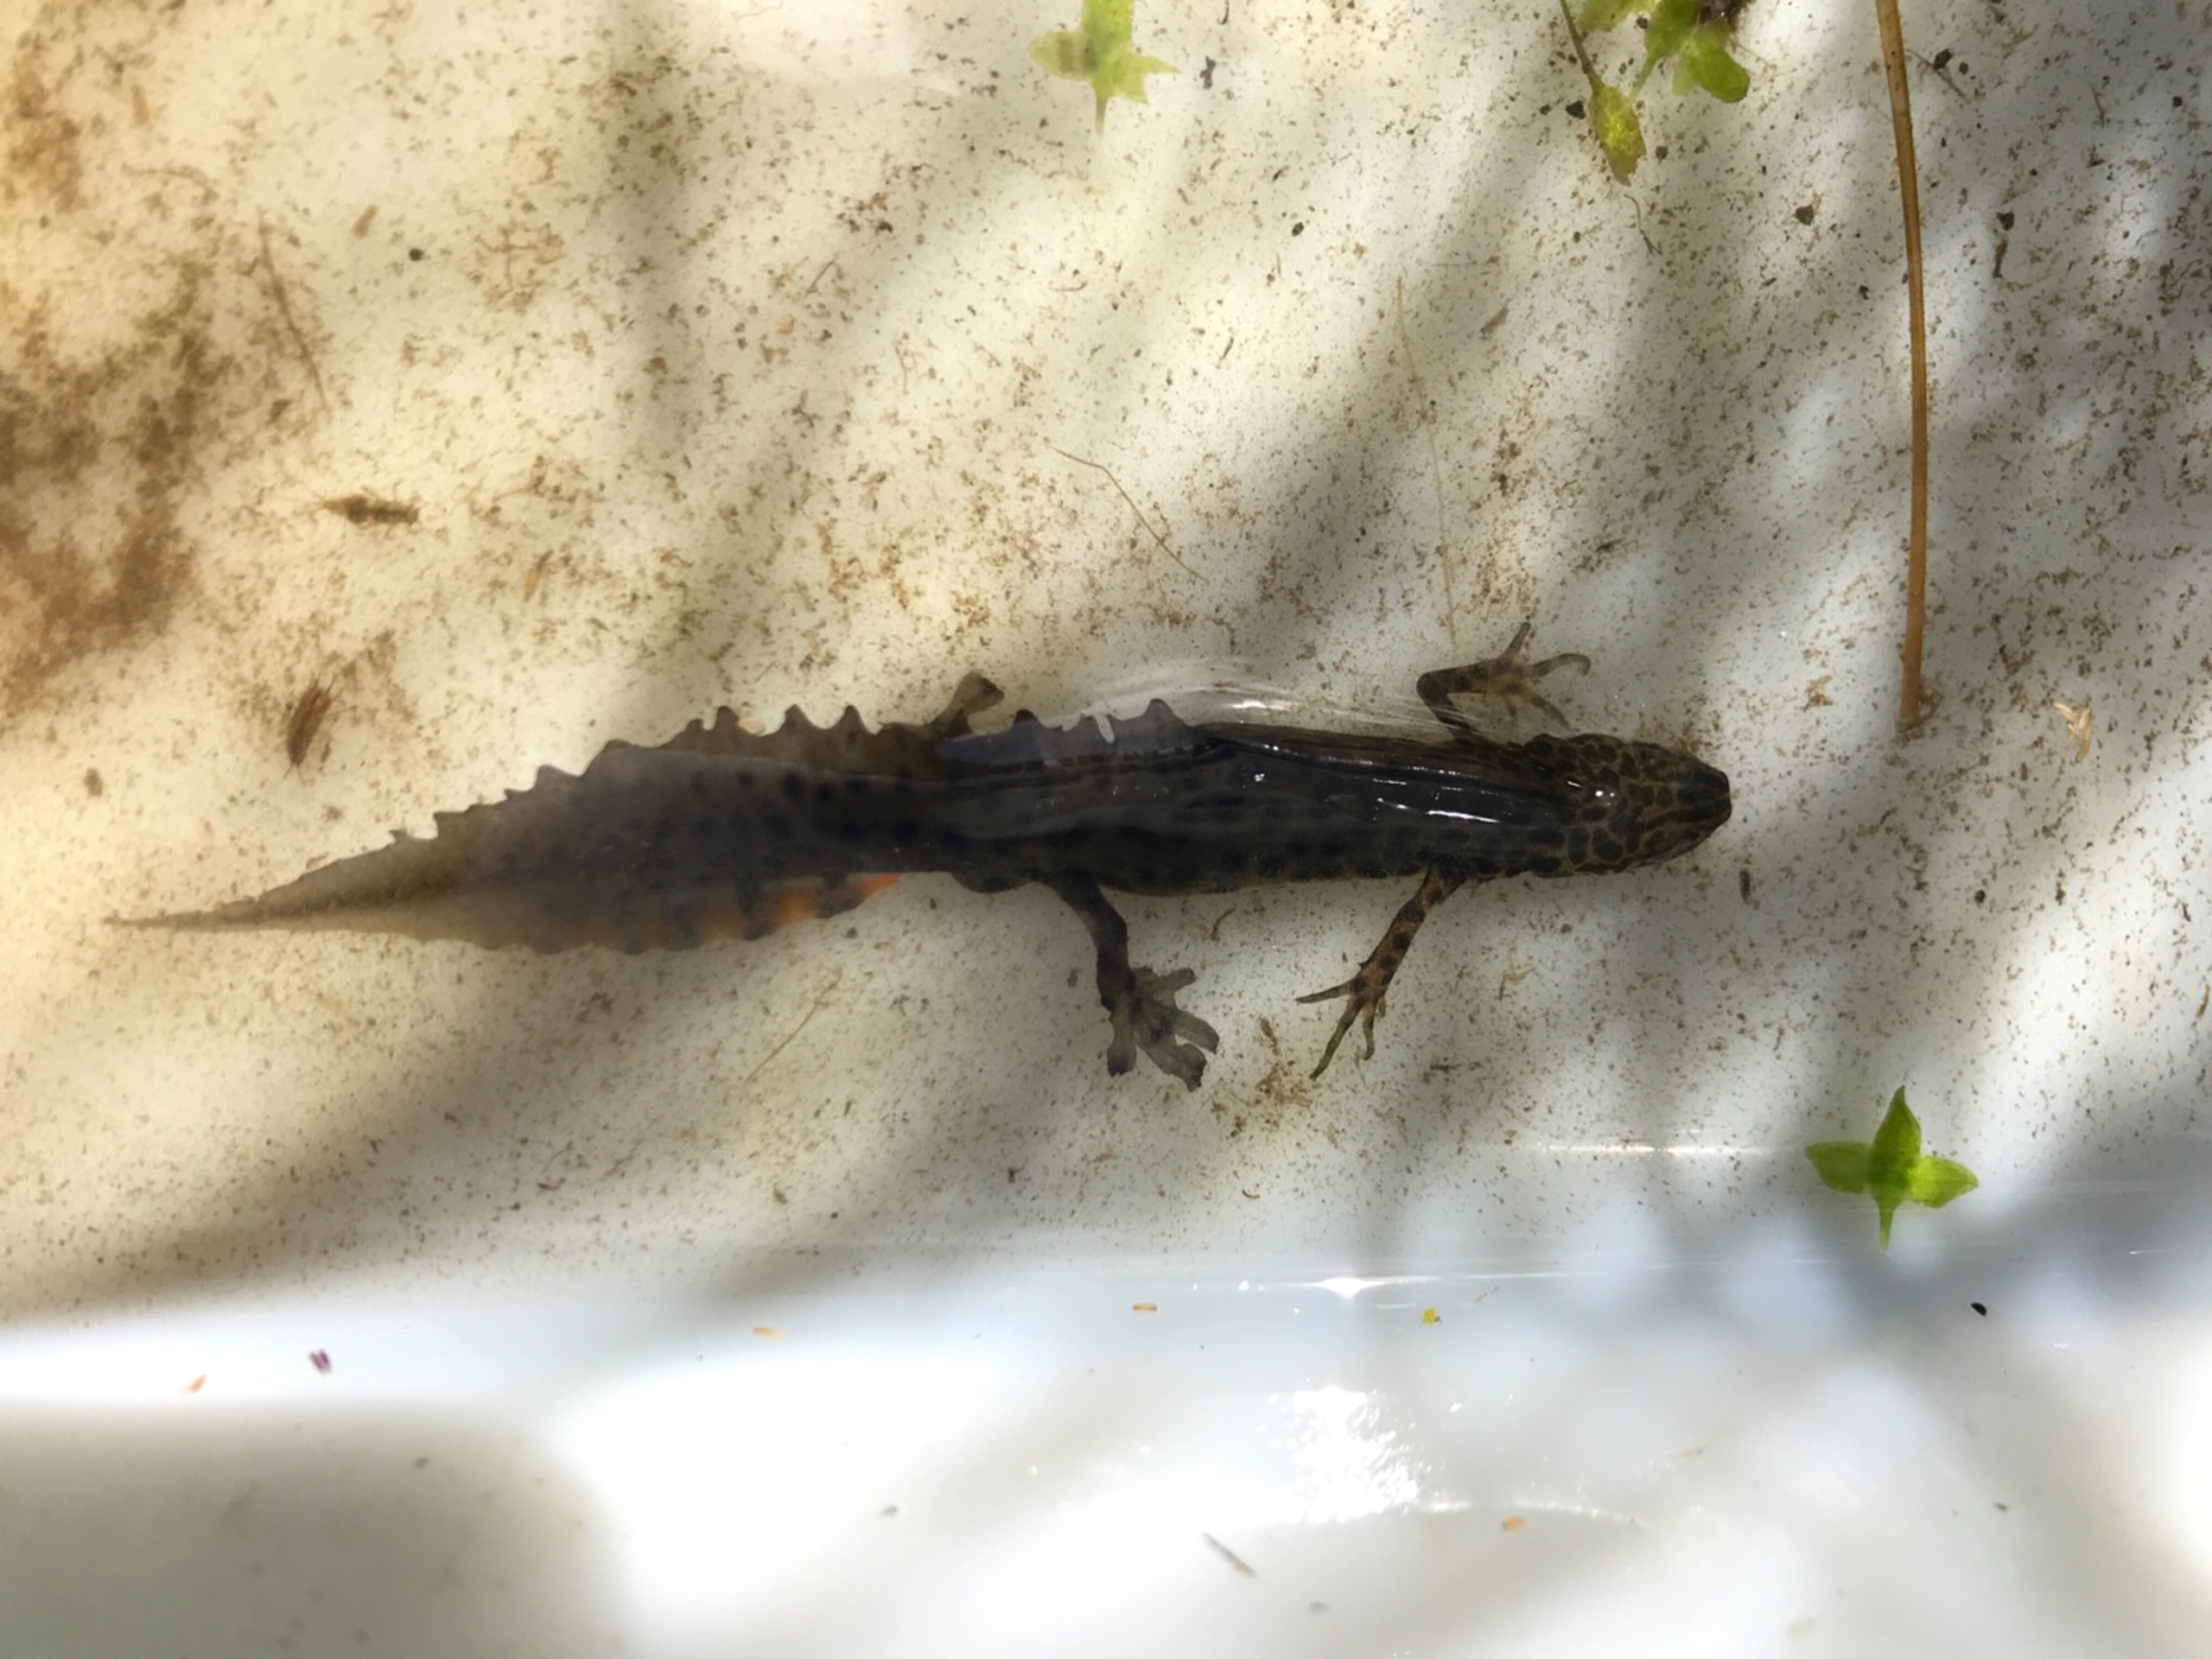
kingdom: Animalia
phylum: Chordata
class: Amphibia
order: Caudata
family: Salamandridae
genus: Lissotriton
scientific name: Lissotriton vulgaris
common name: Lille vandsalamander
